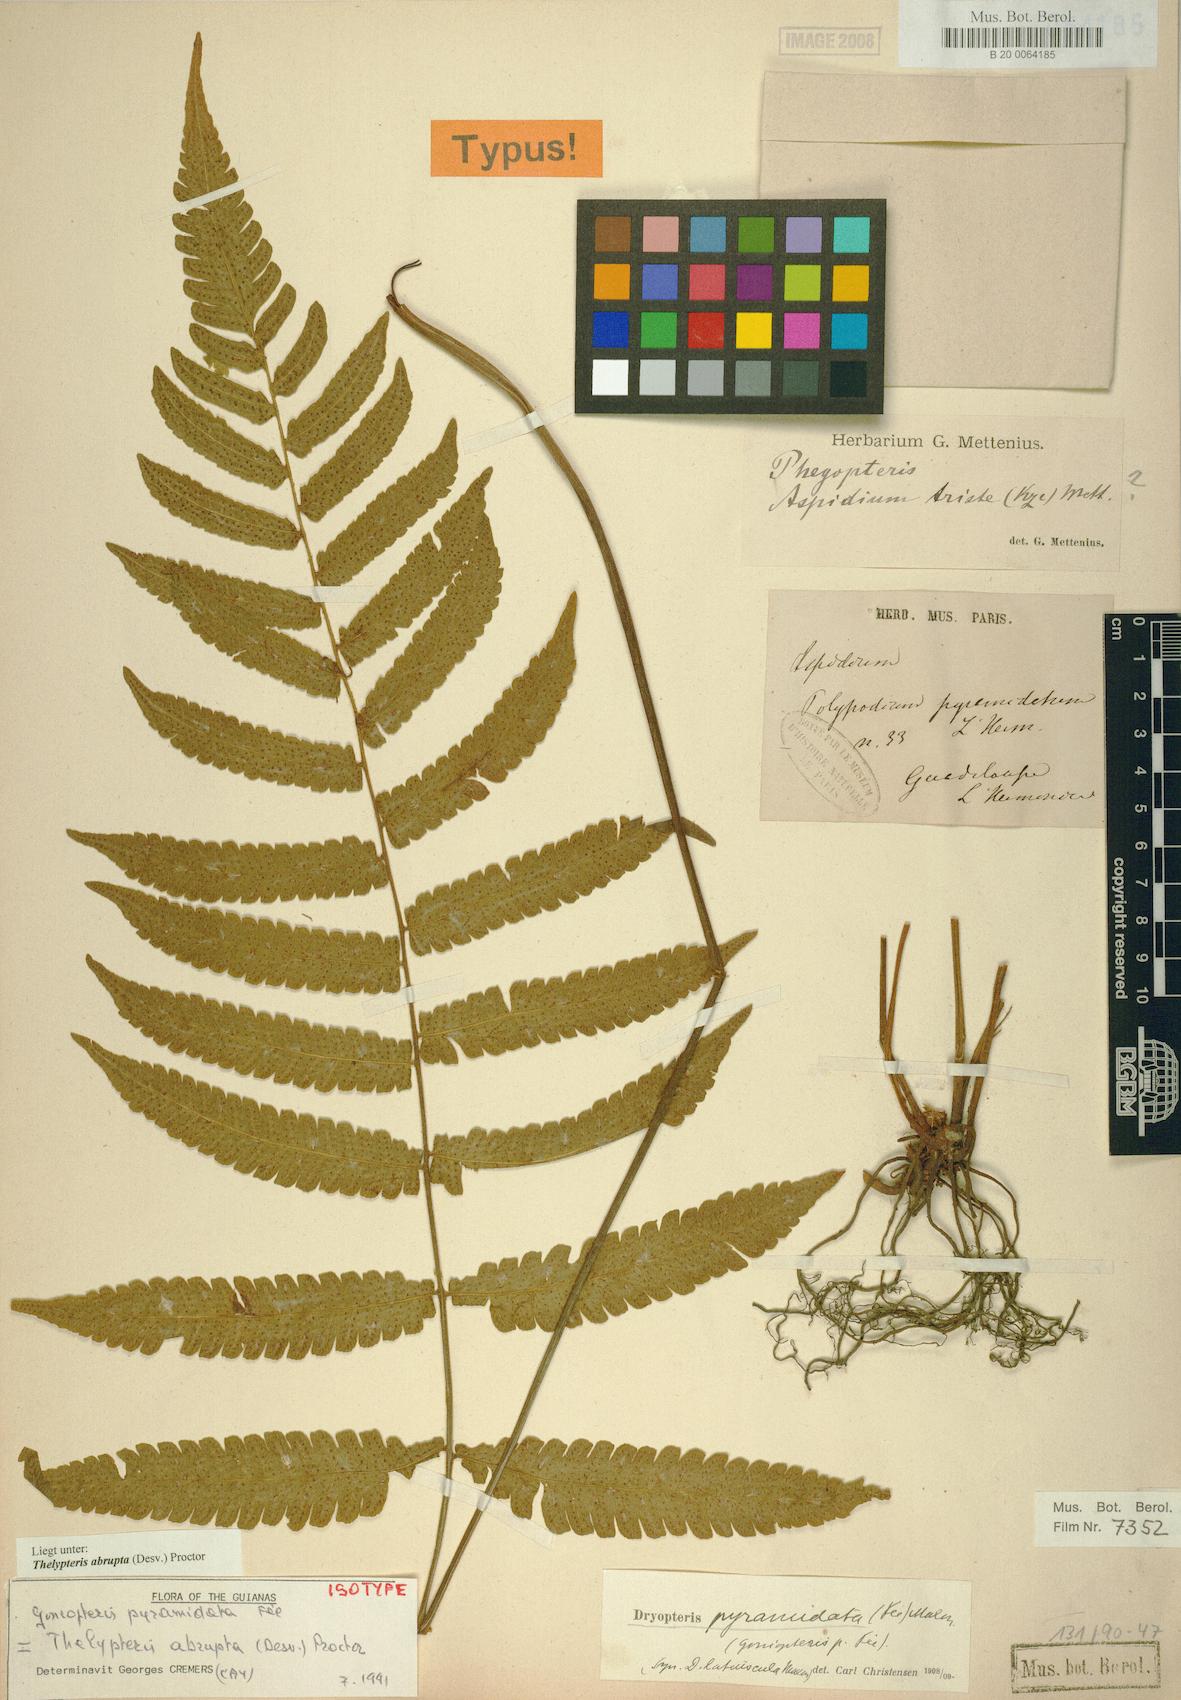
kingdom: Plantae
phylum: Tracheophyta
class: Polypodiopsida
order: Polypodiales
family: Thelypteridaceae
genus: Goniopteris
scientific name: Goniopteris abrupta
